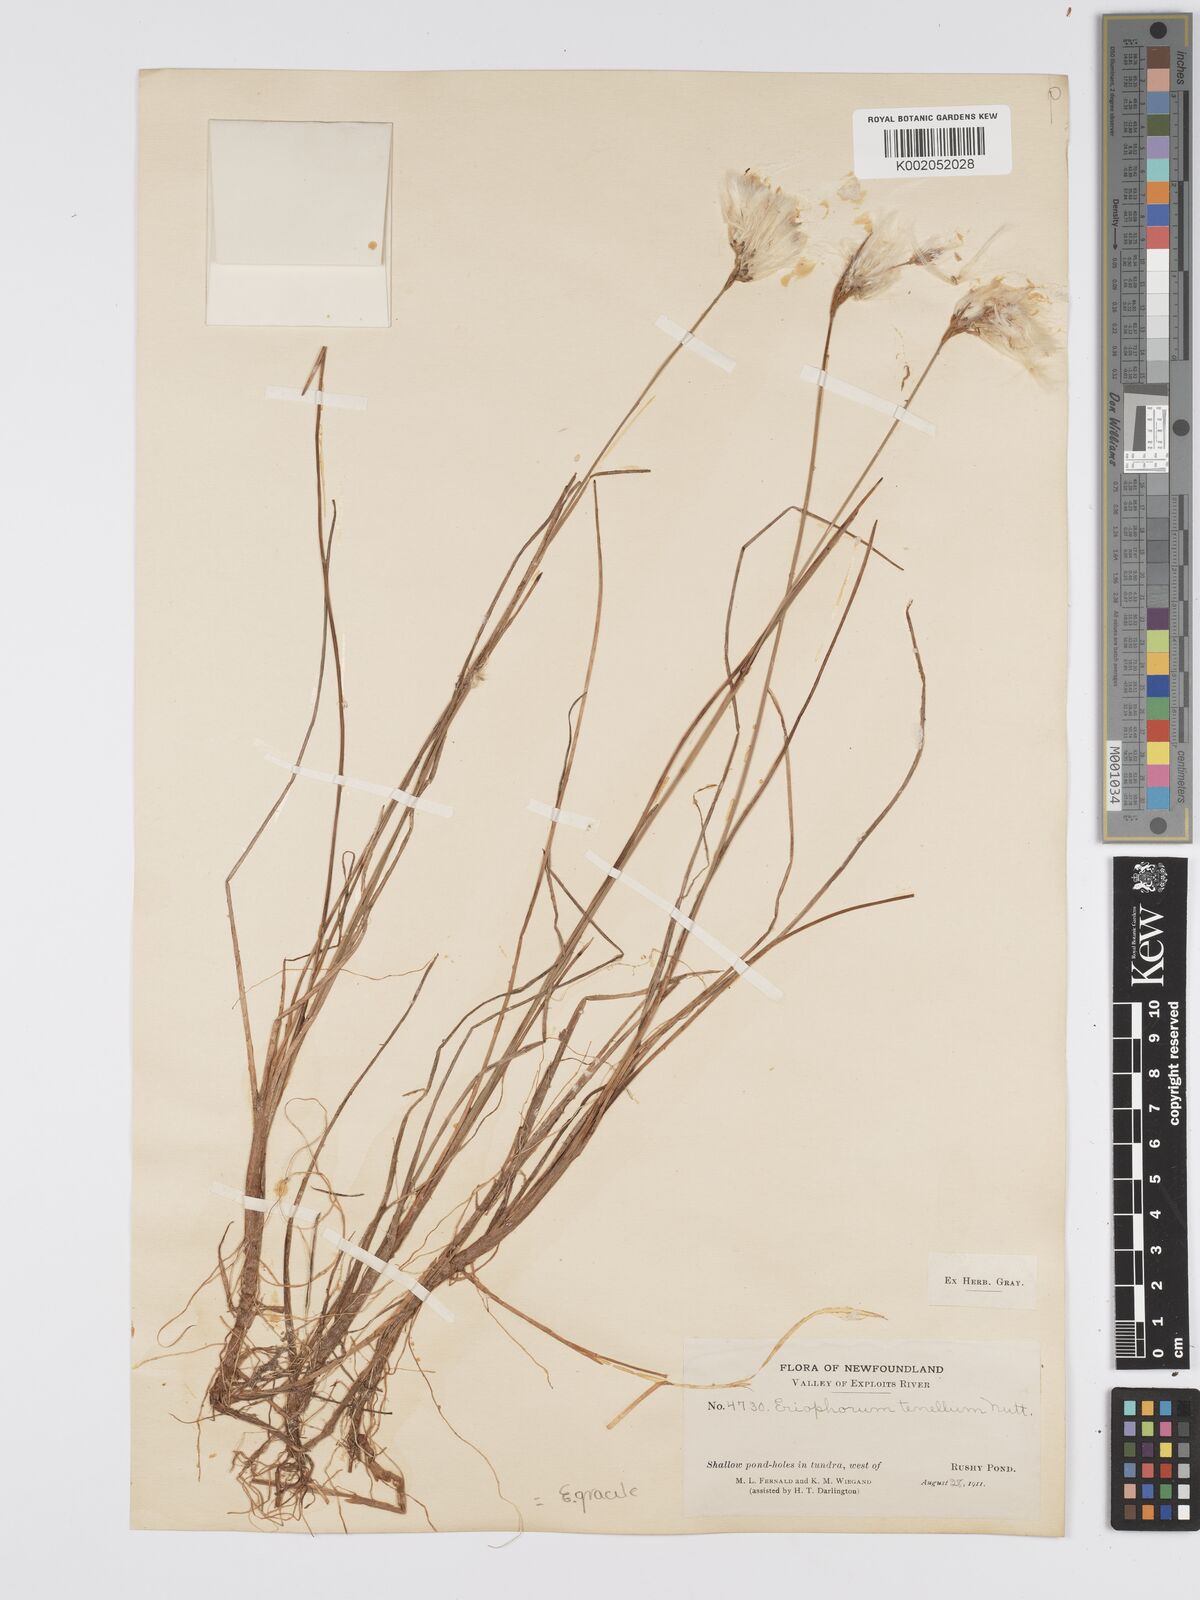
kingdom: Plantae
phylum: Tracheophyta
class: Liliopsida
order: Poales
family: Cyperaceae
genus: Eriophorum
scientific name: Eriophorum tenellum
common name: Few-nerved cottongrass
